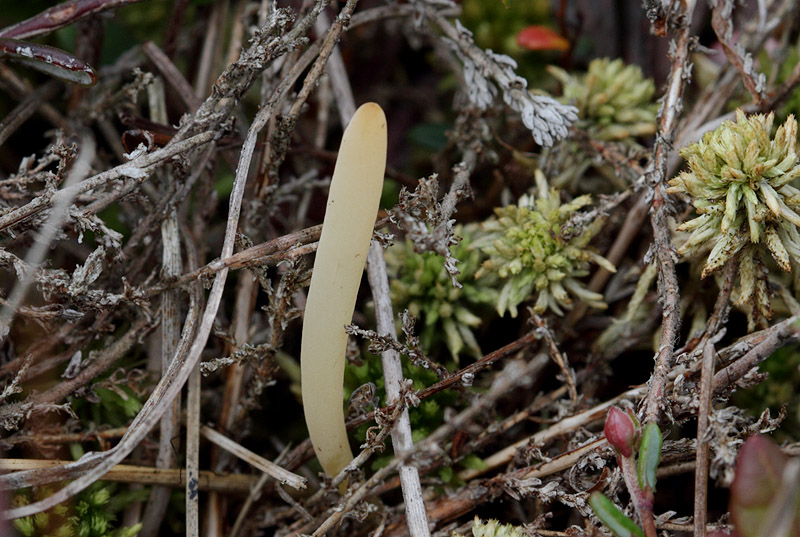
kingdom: Fungi
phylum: Basidiomycota
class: Agaricomycetes
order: Agaricales
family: Clavariaceae
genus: Clavaria
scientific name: Clavaria sphagnicola
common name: tørvemos-køllesvamp
